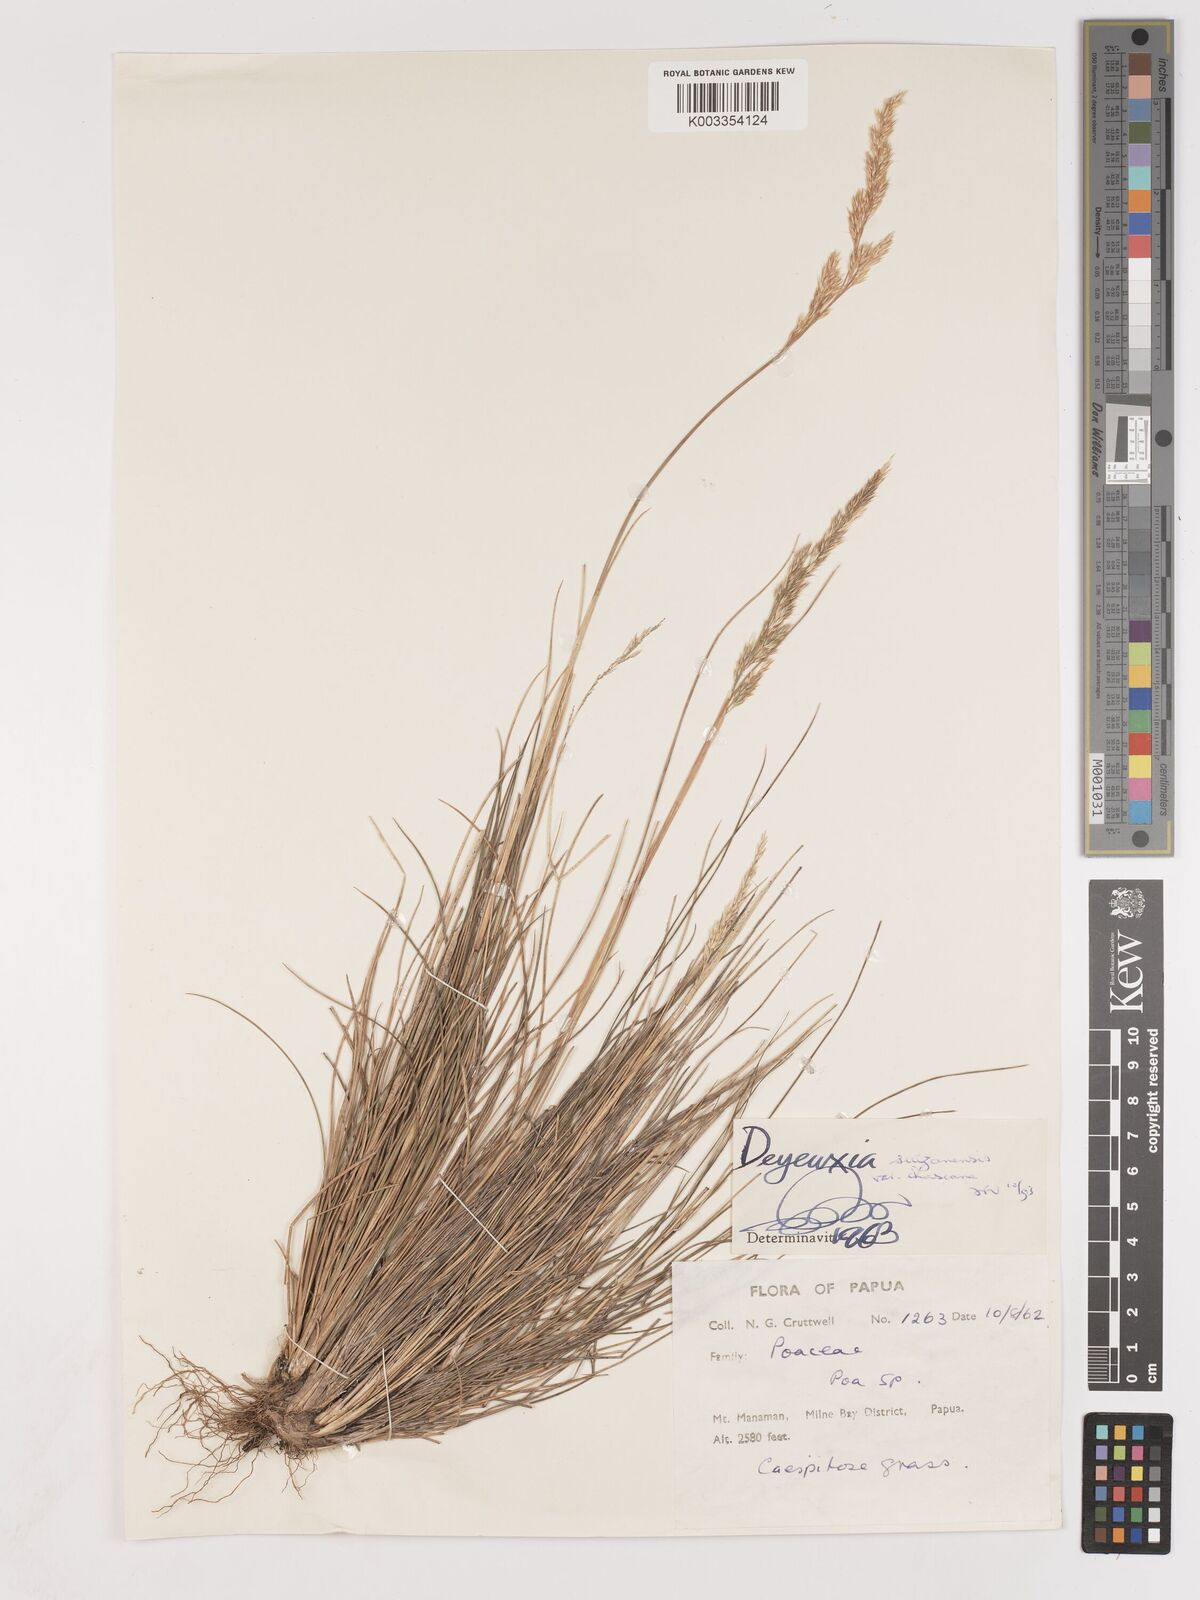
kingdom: Plantae
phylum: Tracheophyta
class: Liliopsida
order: Poales
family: Poaceae
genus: Calamagrostis
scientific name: Calamagrostis filifolia
